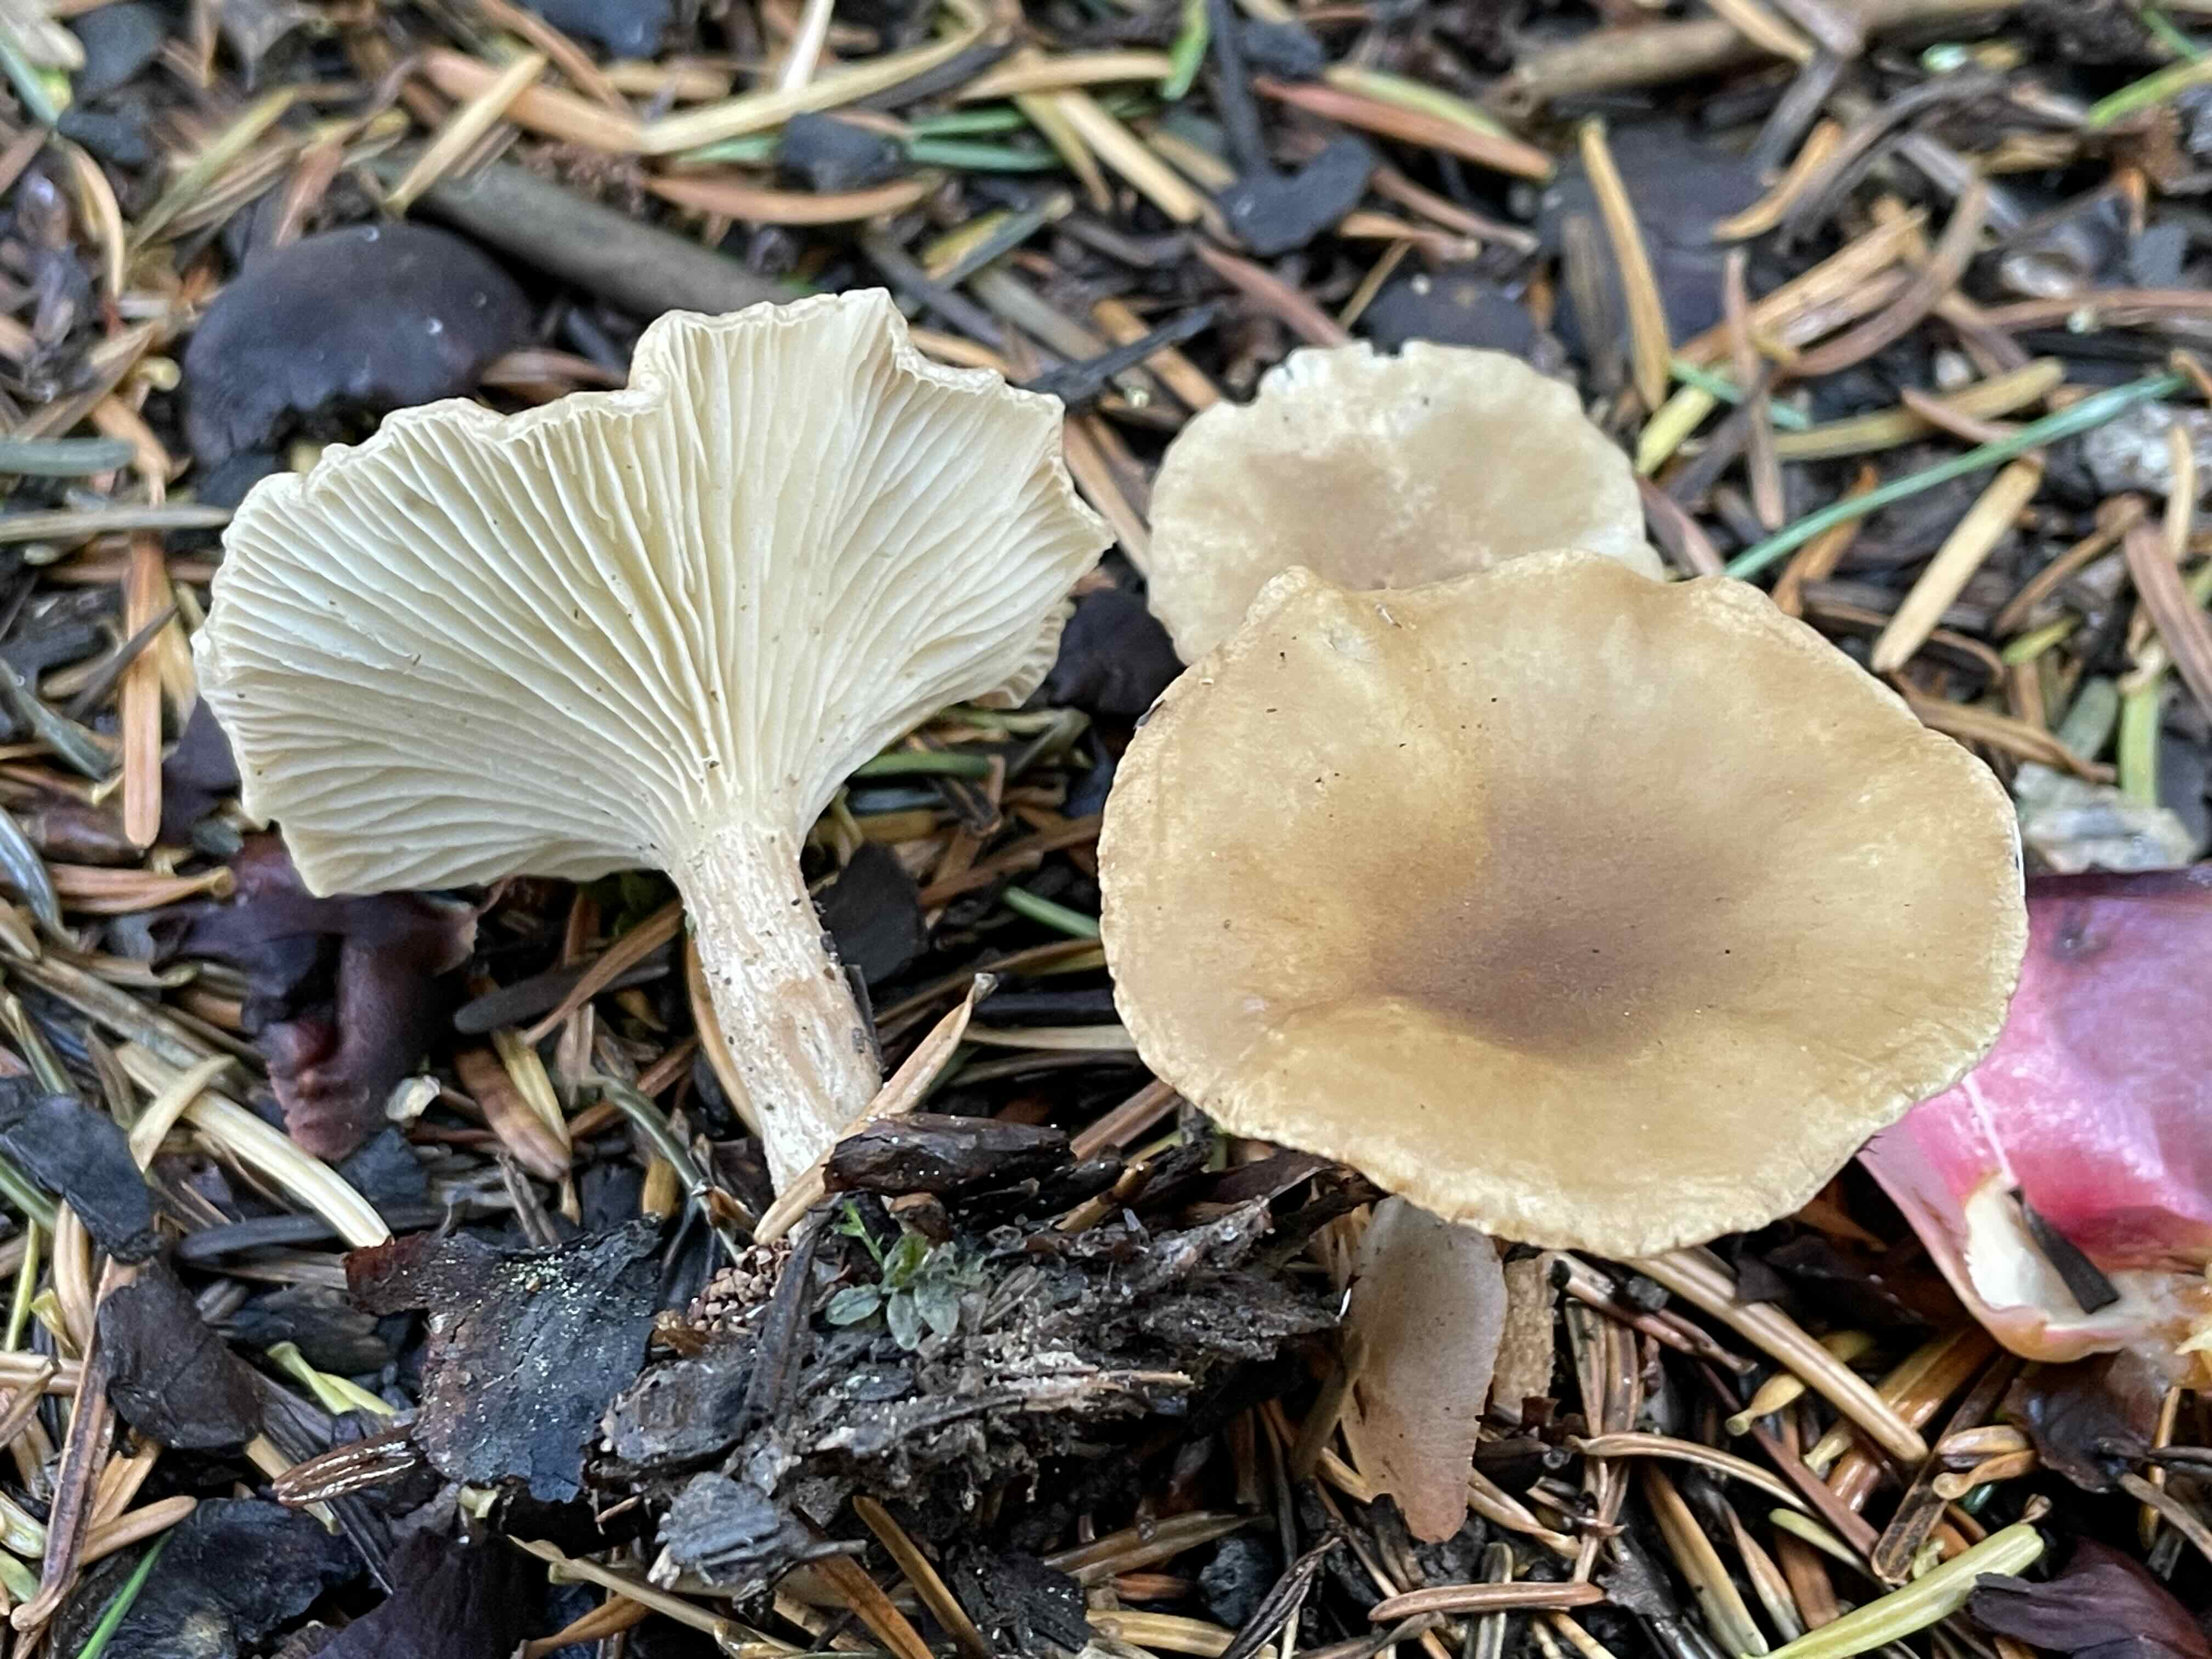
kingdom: Fungi
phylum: Basidiomycota
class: Agaricomycetes
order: Agaricales
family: Tricholomataceae
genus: Infundibulicybe
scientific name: Infundibulicybe
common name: tragthat
